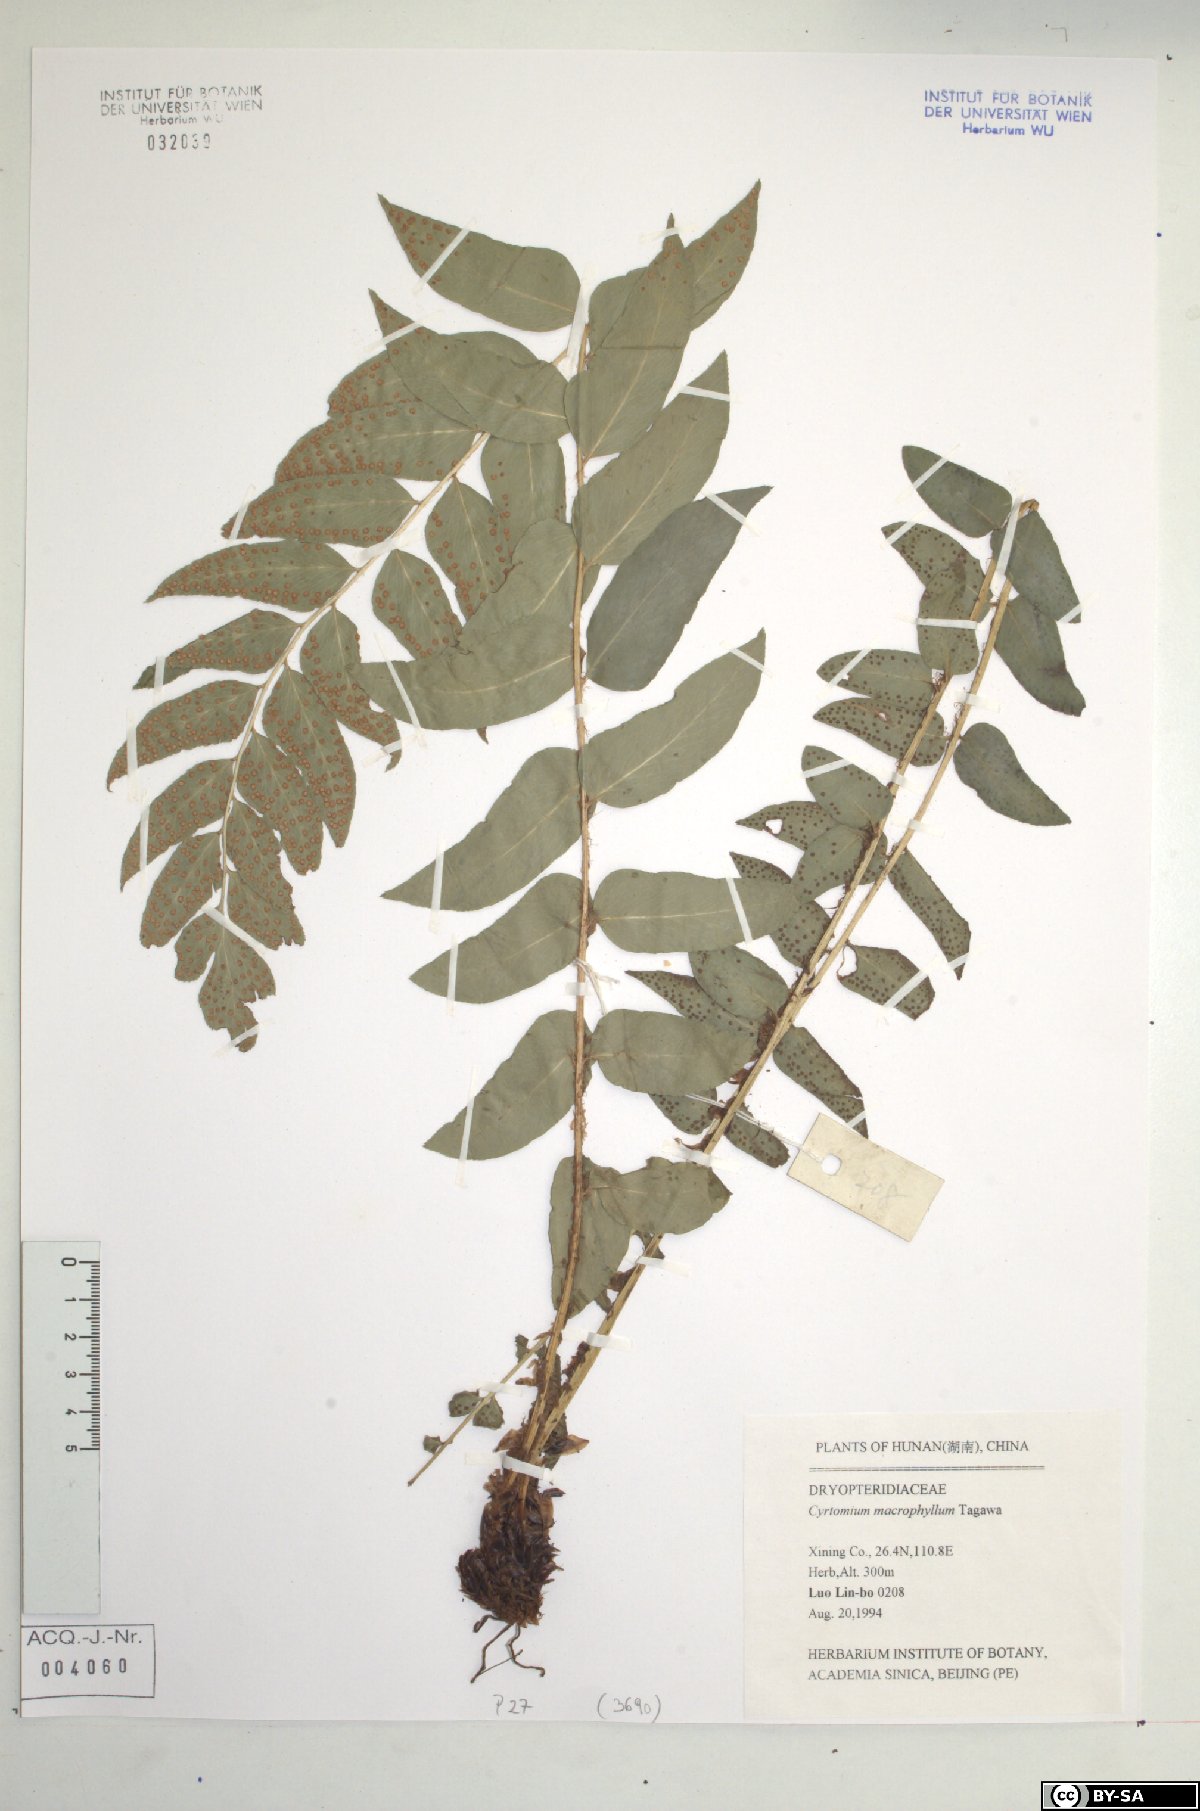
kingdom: Plantae
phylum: Tracheophyta
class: Polypodiopsida
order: Polypodiales
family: Dryopteridaceae
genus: Cyrtomium
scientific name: Cyrtomium macrophyllum
